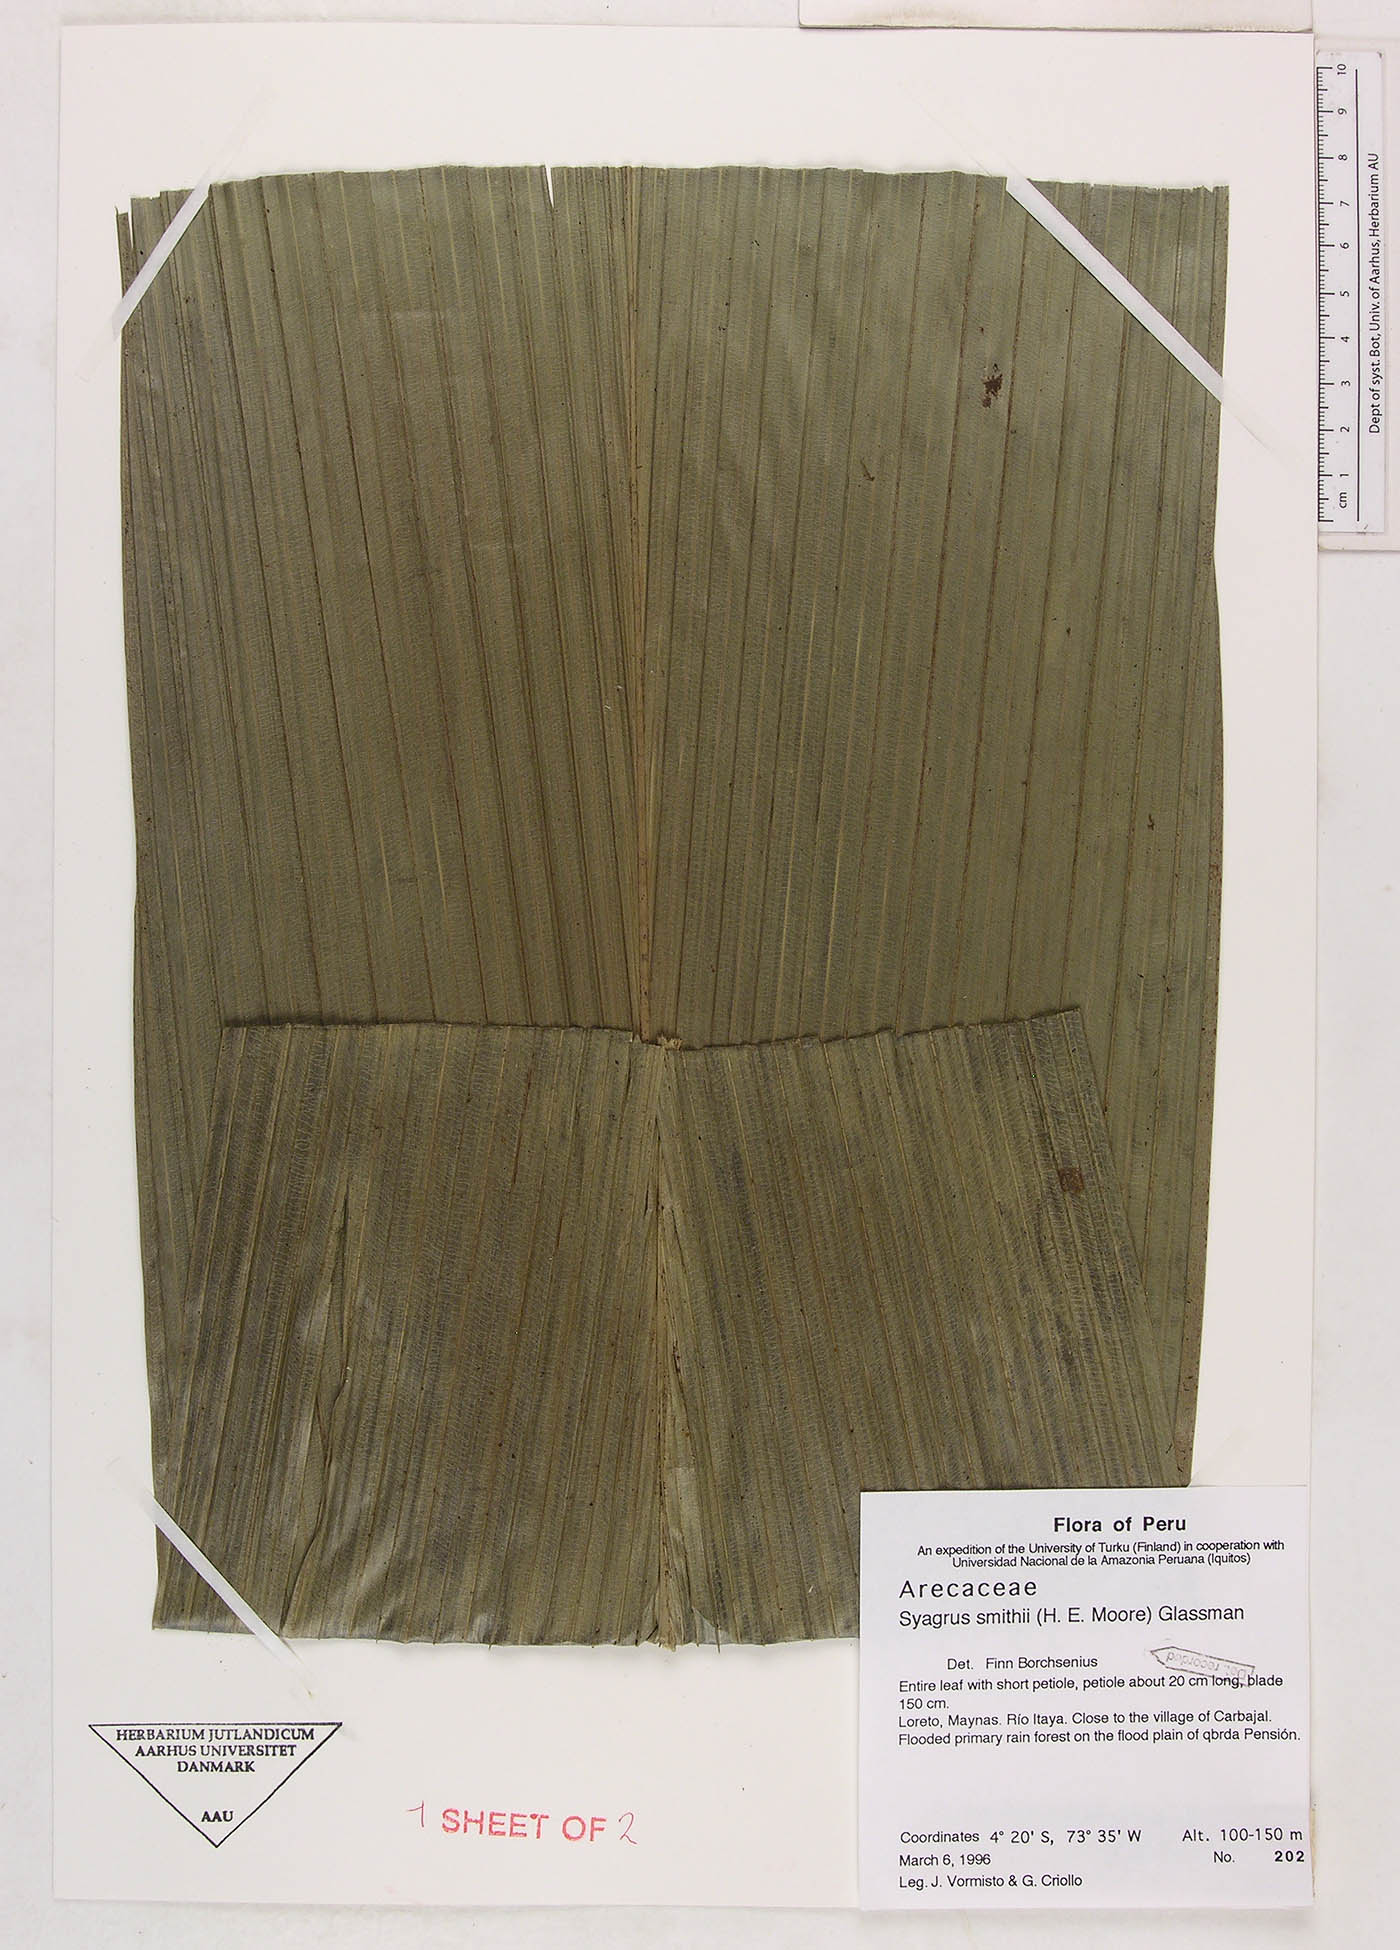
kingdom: Plantae
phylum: Tracheophyta
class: Liliopsida
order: Arecales
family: Arecaceae
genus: Syagrus
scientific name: Syagrus smithii
